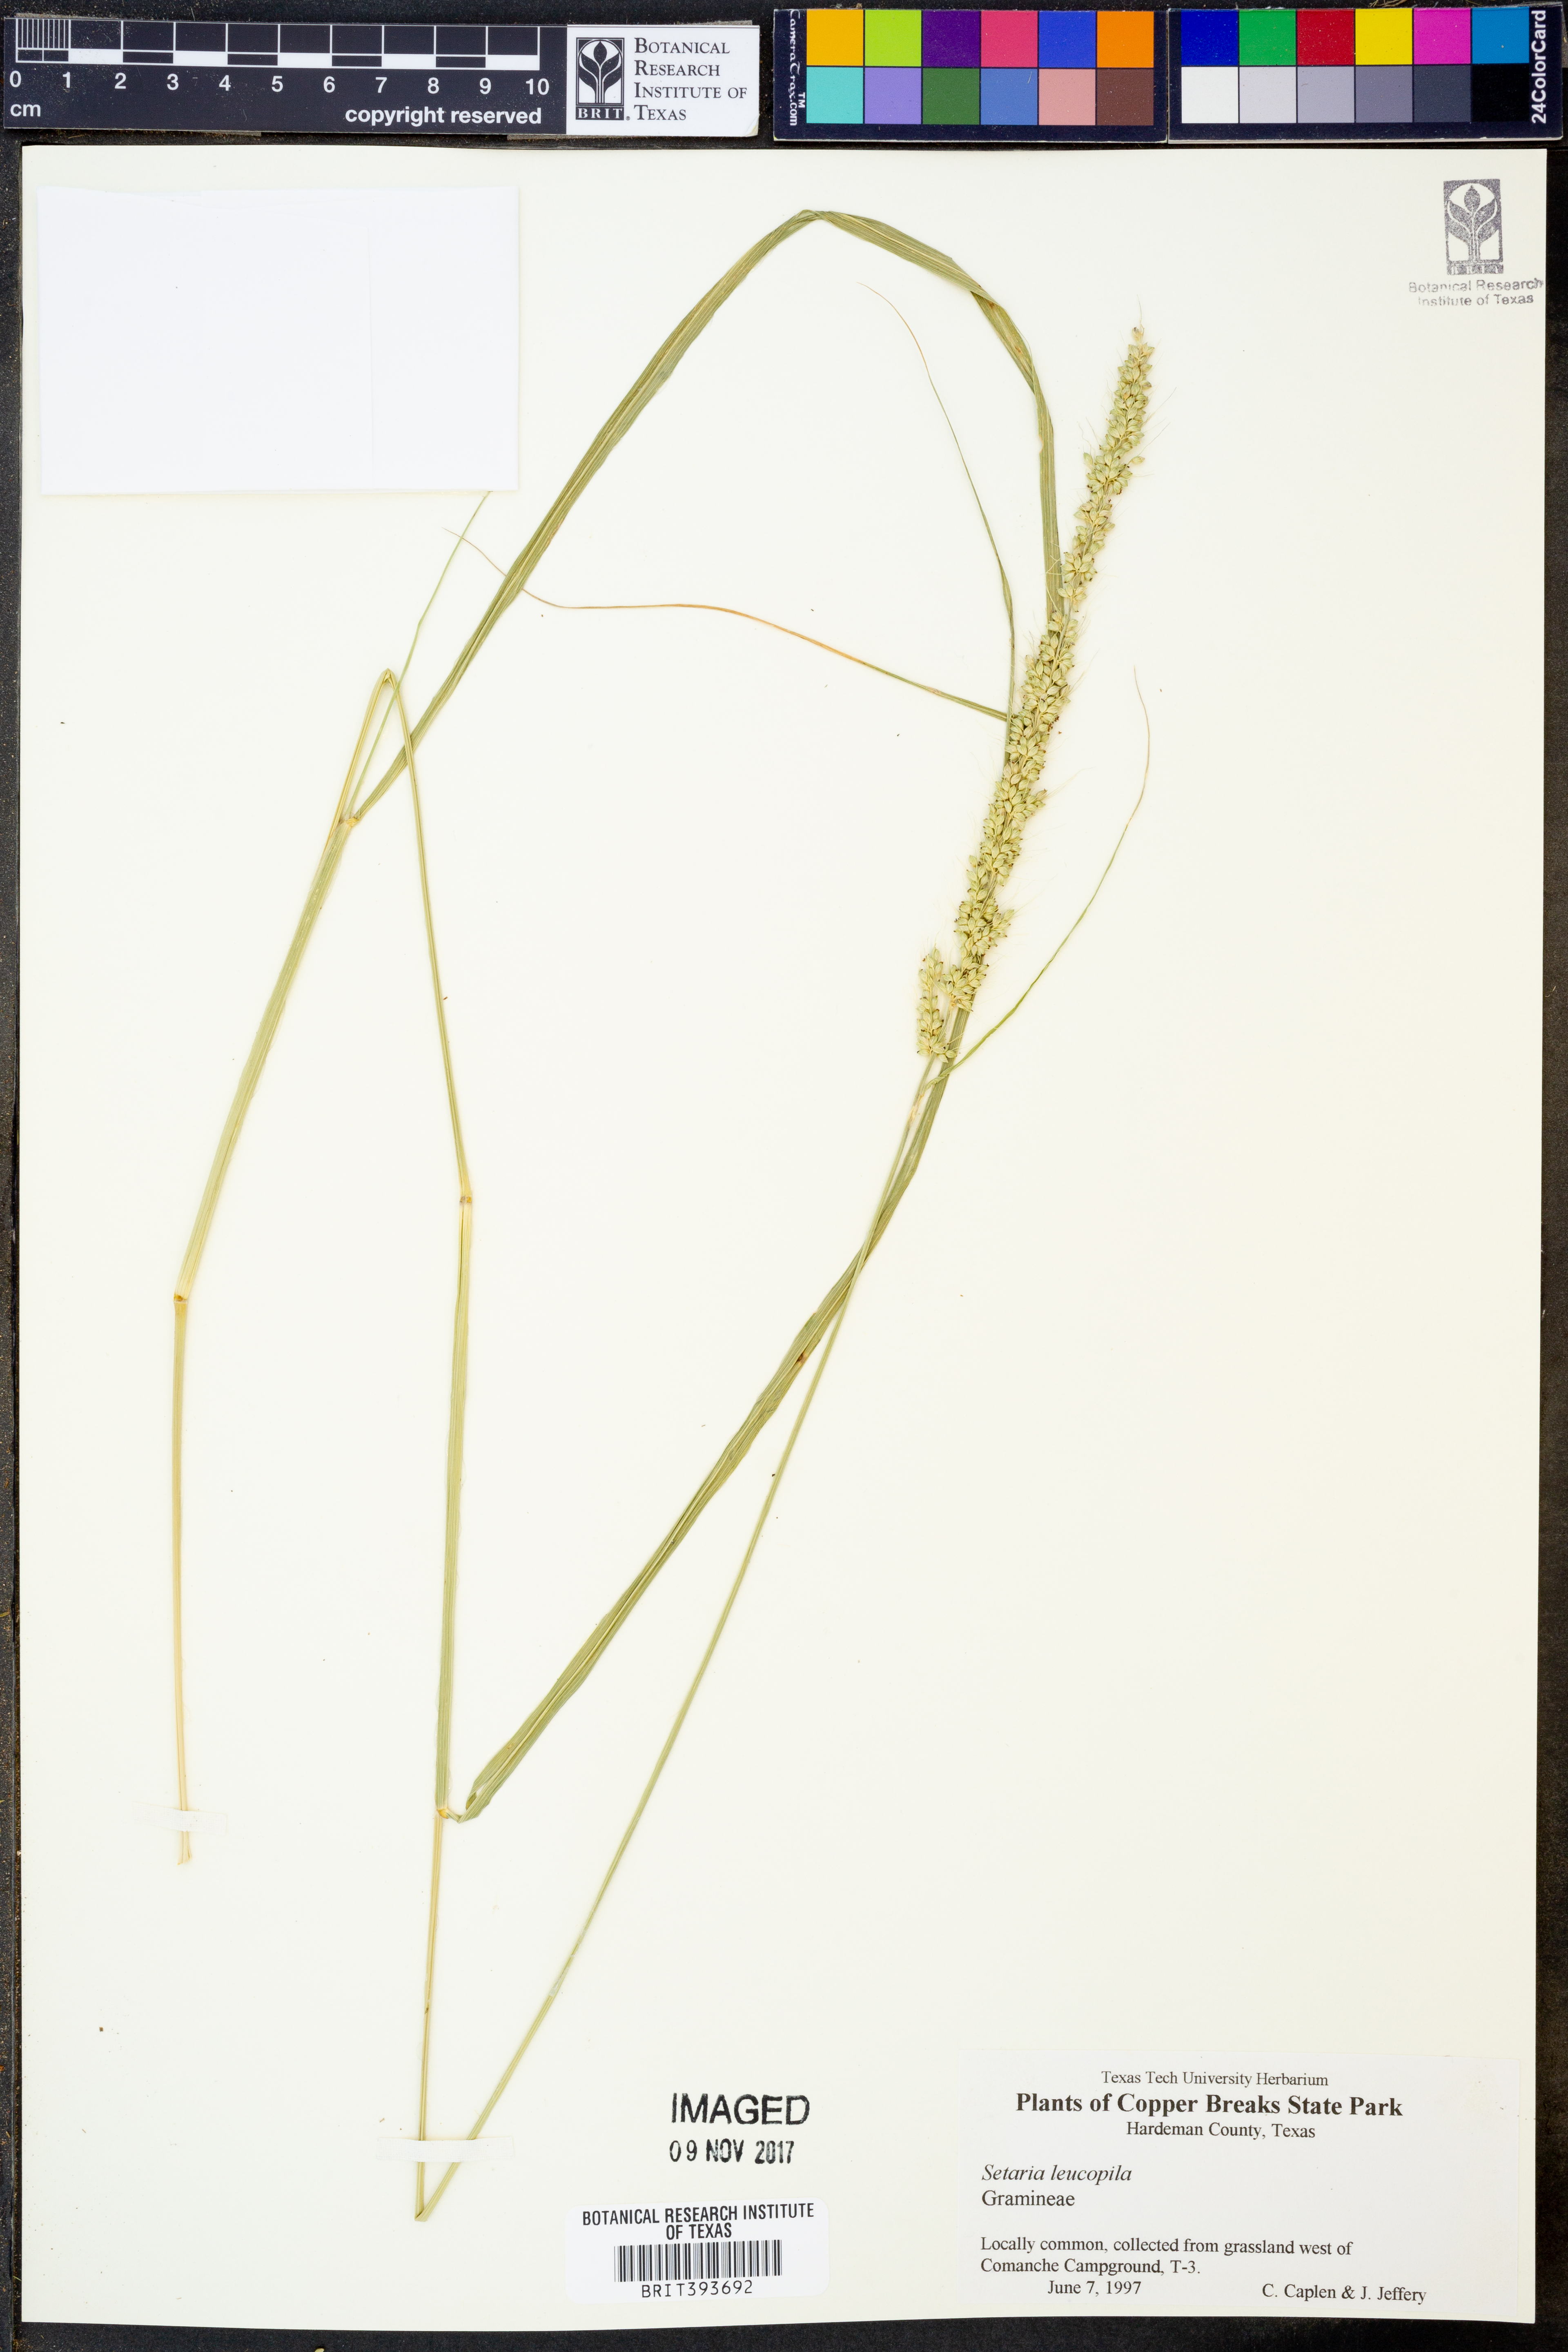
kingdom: Plantae
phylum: Tracheophyta
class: Liliopsida
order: Poales
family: Poaceae
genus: Setaria
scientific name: Setaria leucopila
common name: Plains bristle grass
